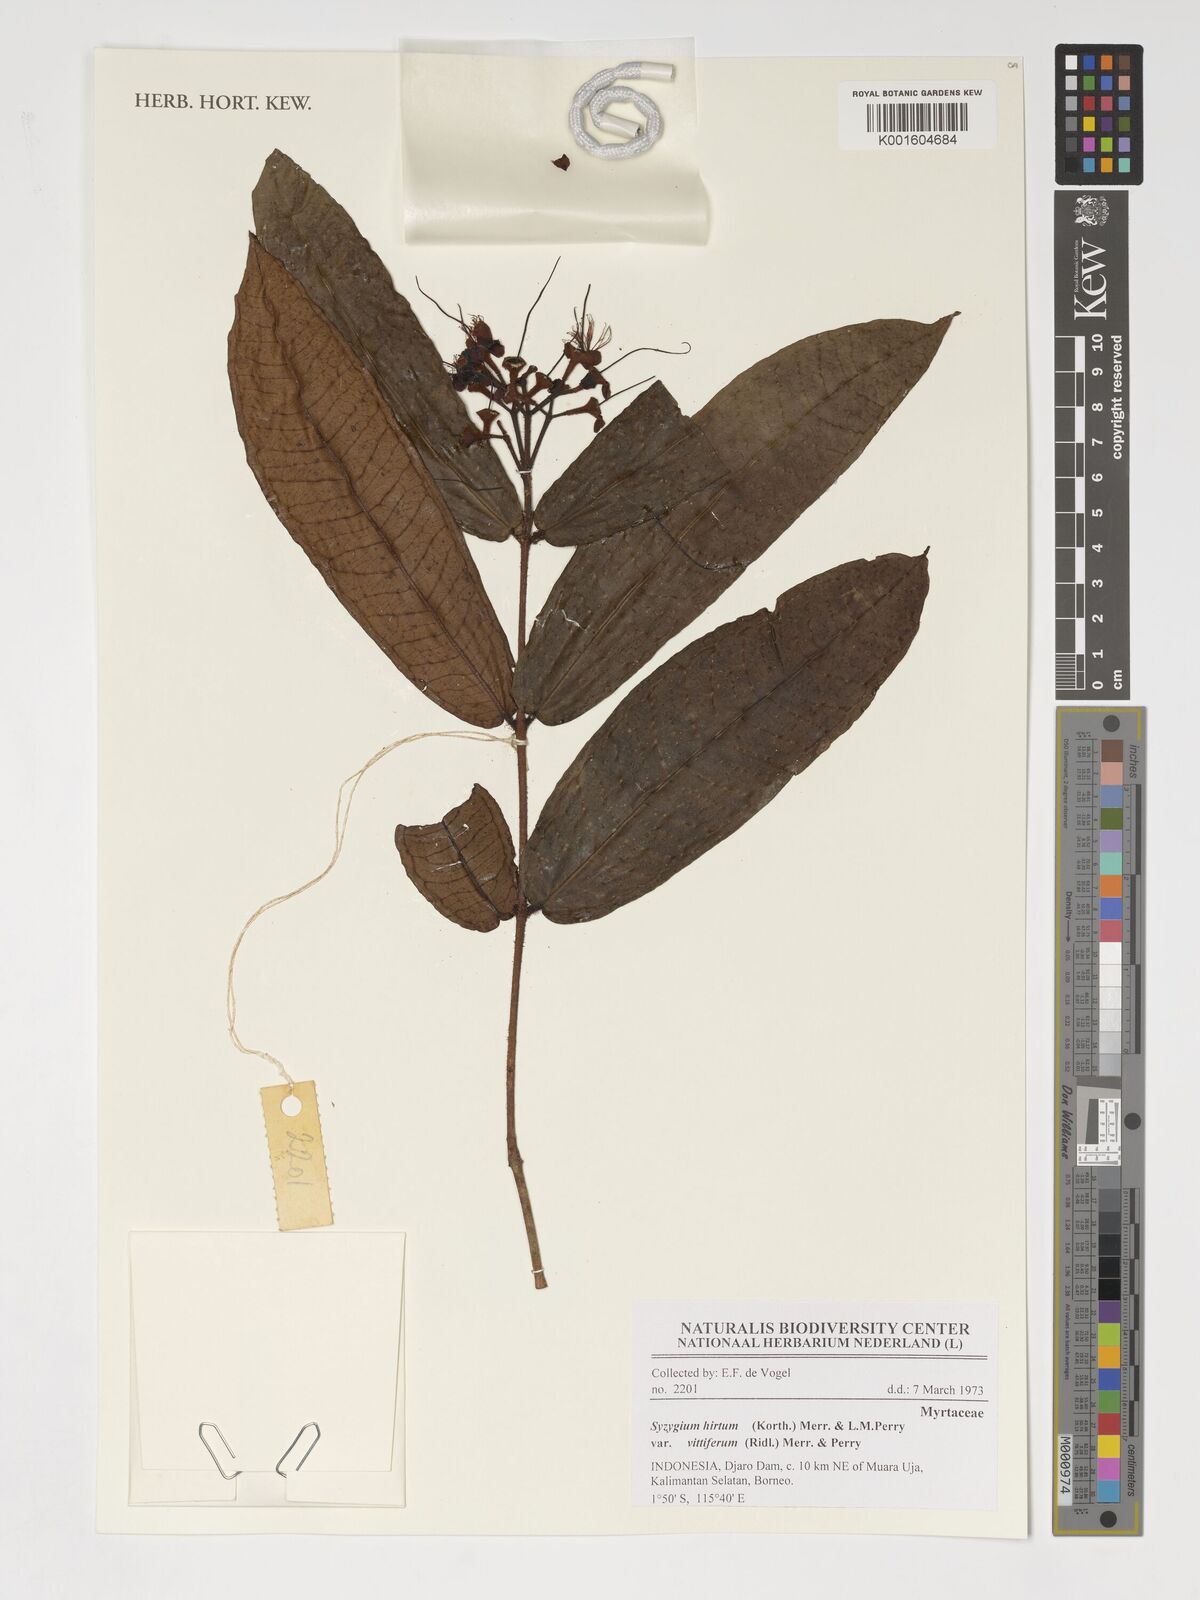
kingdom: Plantae
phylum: Tracheophyta
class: Magnoliopsida
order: Myrtales
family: Myrtaceae
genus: Syzygium
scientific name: Syzygium hirtum
